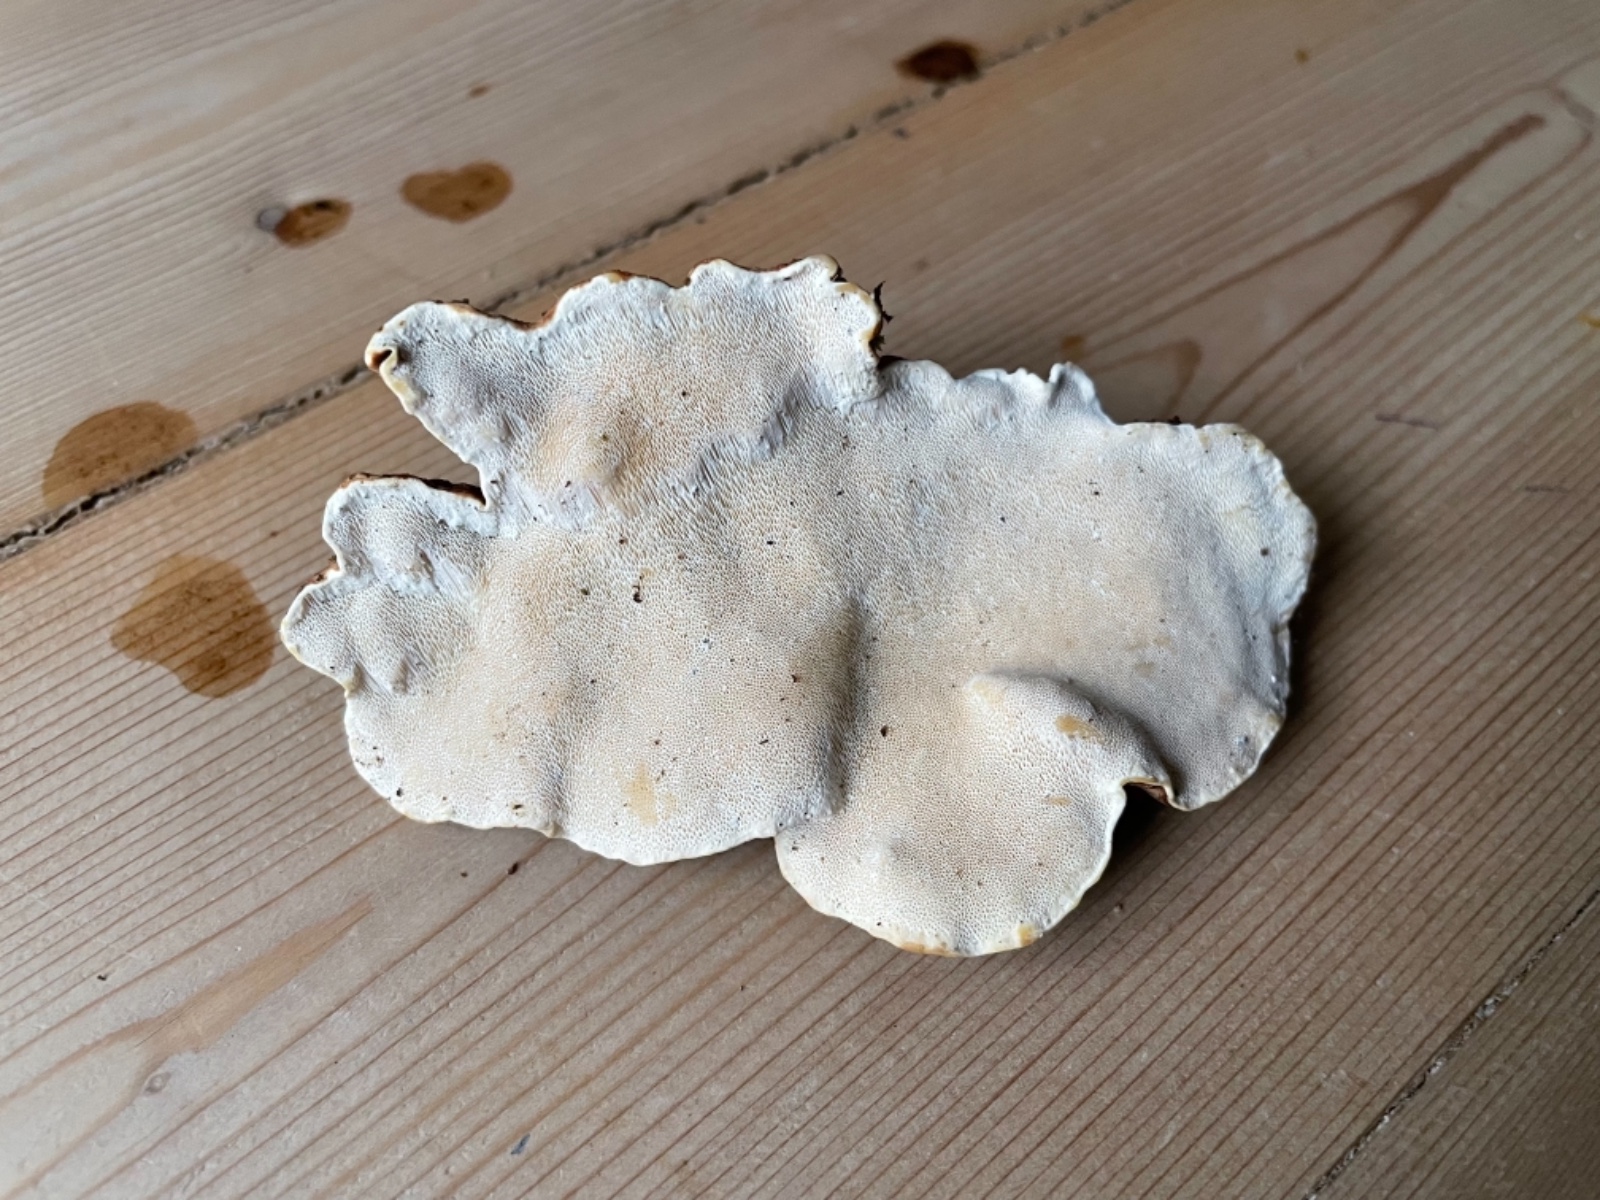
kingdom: Fungi
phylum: Basidiomycota
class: Agaricomycetes
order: Russulales
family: Bondarzewiaceae
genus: Heterobasidion
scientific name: Heterobasidion
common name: rodfordærver
